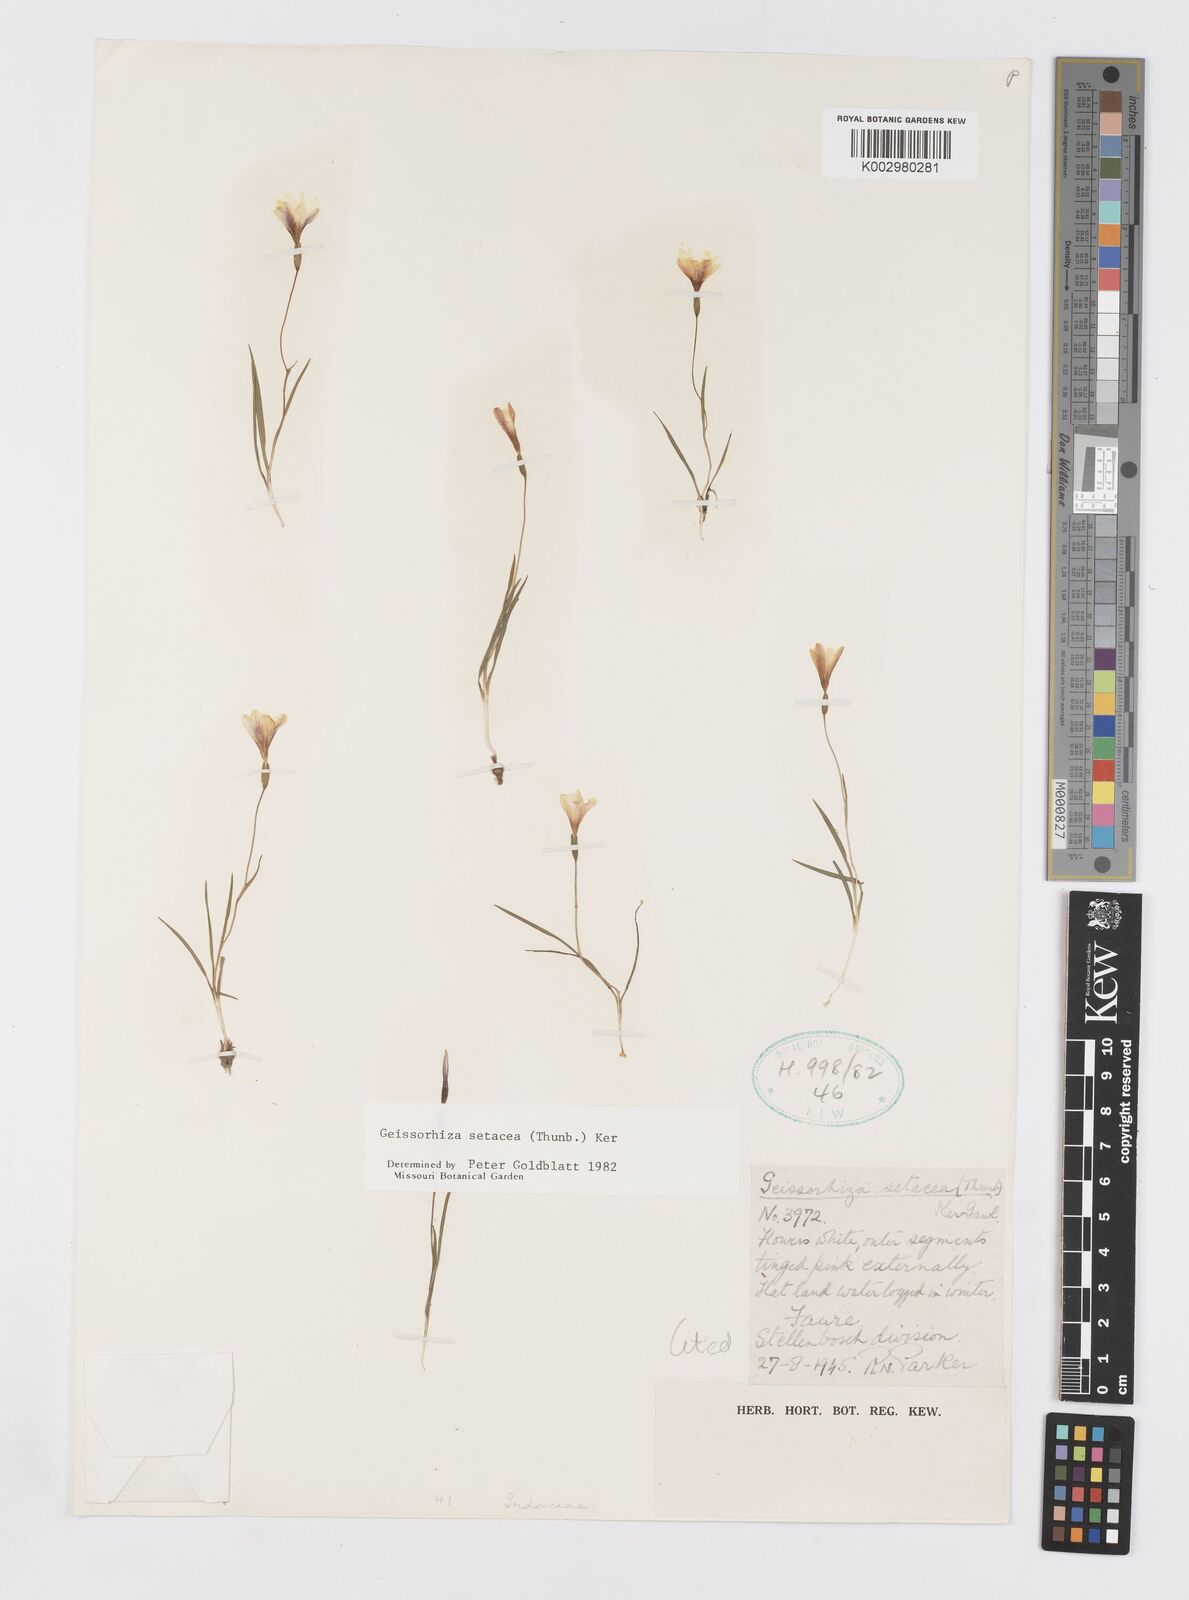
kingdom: Plantae
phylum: Tracheophyta
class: Liliopsida
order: Asparagales
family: Iridaceae
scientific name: Iridaceae
